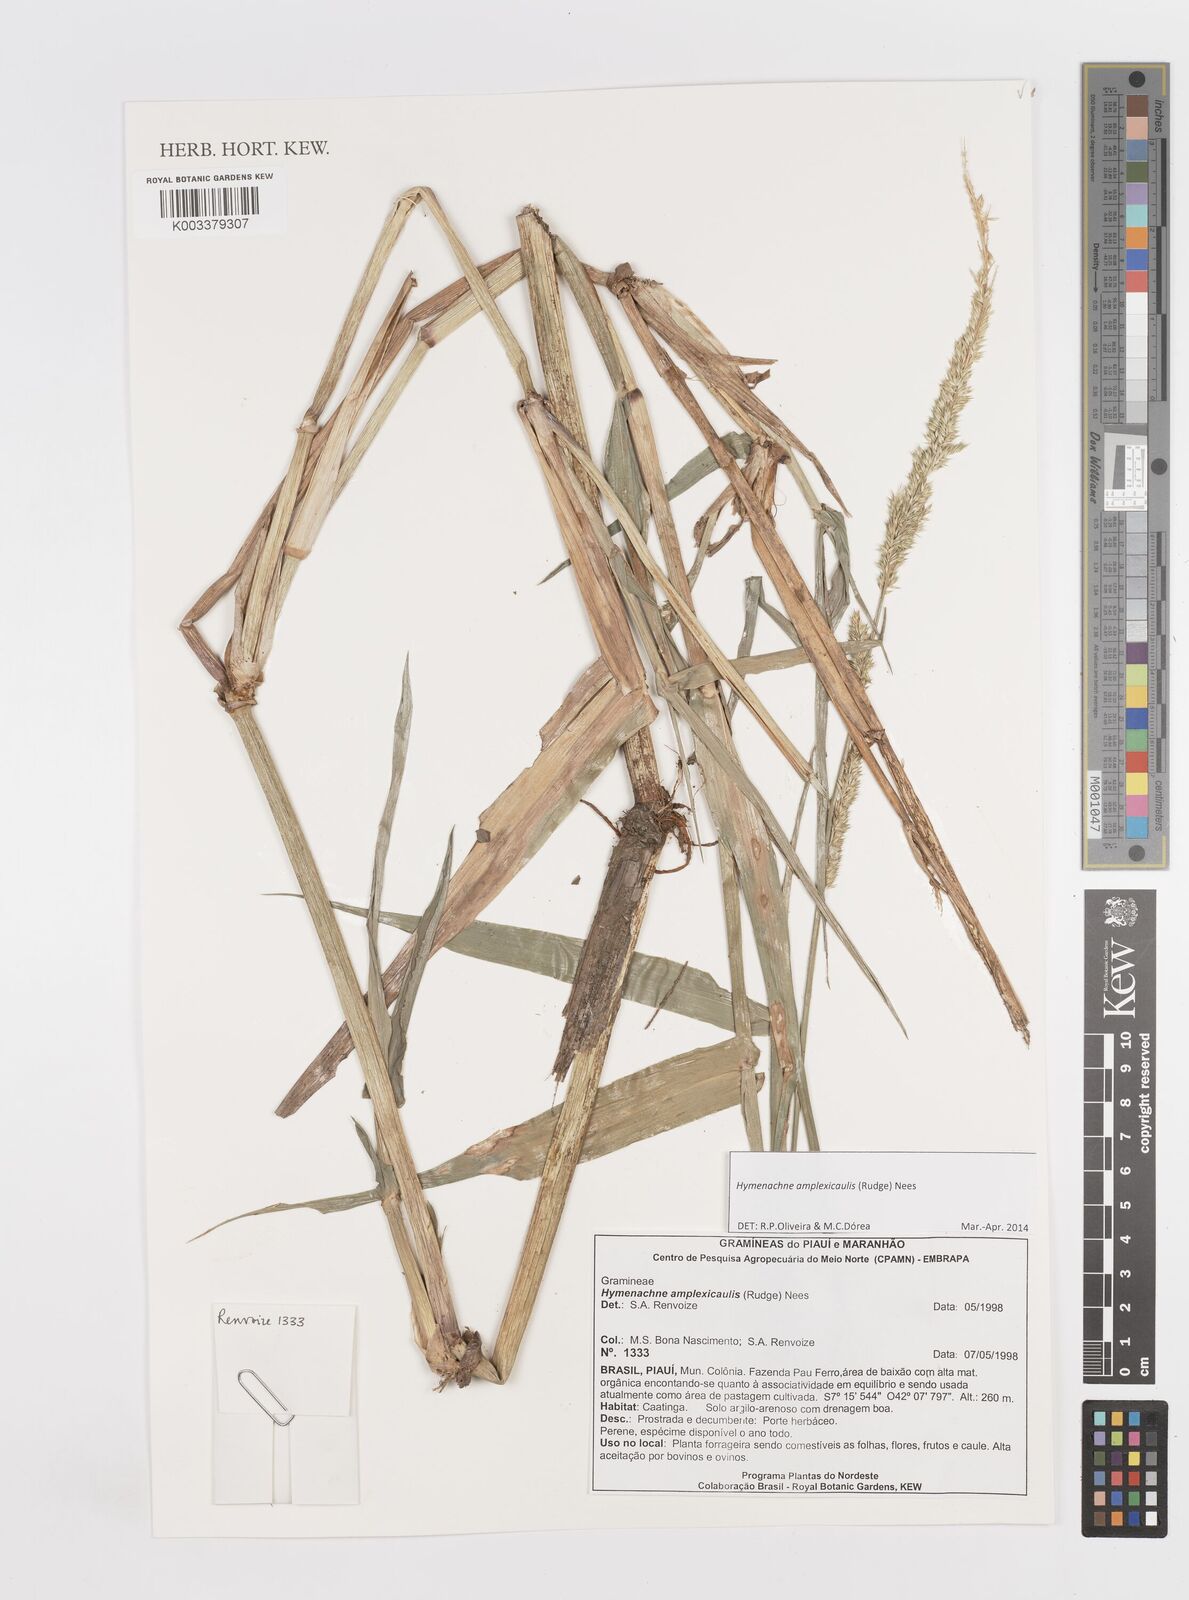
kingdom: Plantae
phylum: Tracheophyta
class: Liliopsida
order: Poales
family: Poaceae
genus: Hymenachne
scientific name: Hymenachne amplexicaulis
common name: Olive hymenachne
